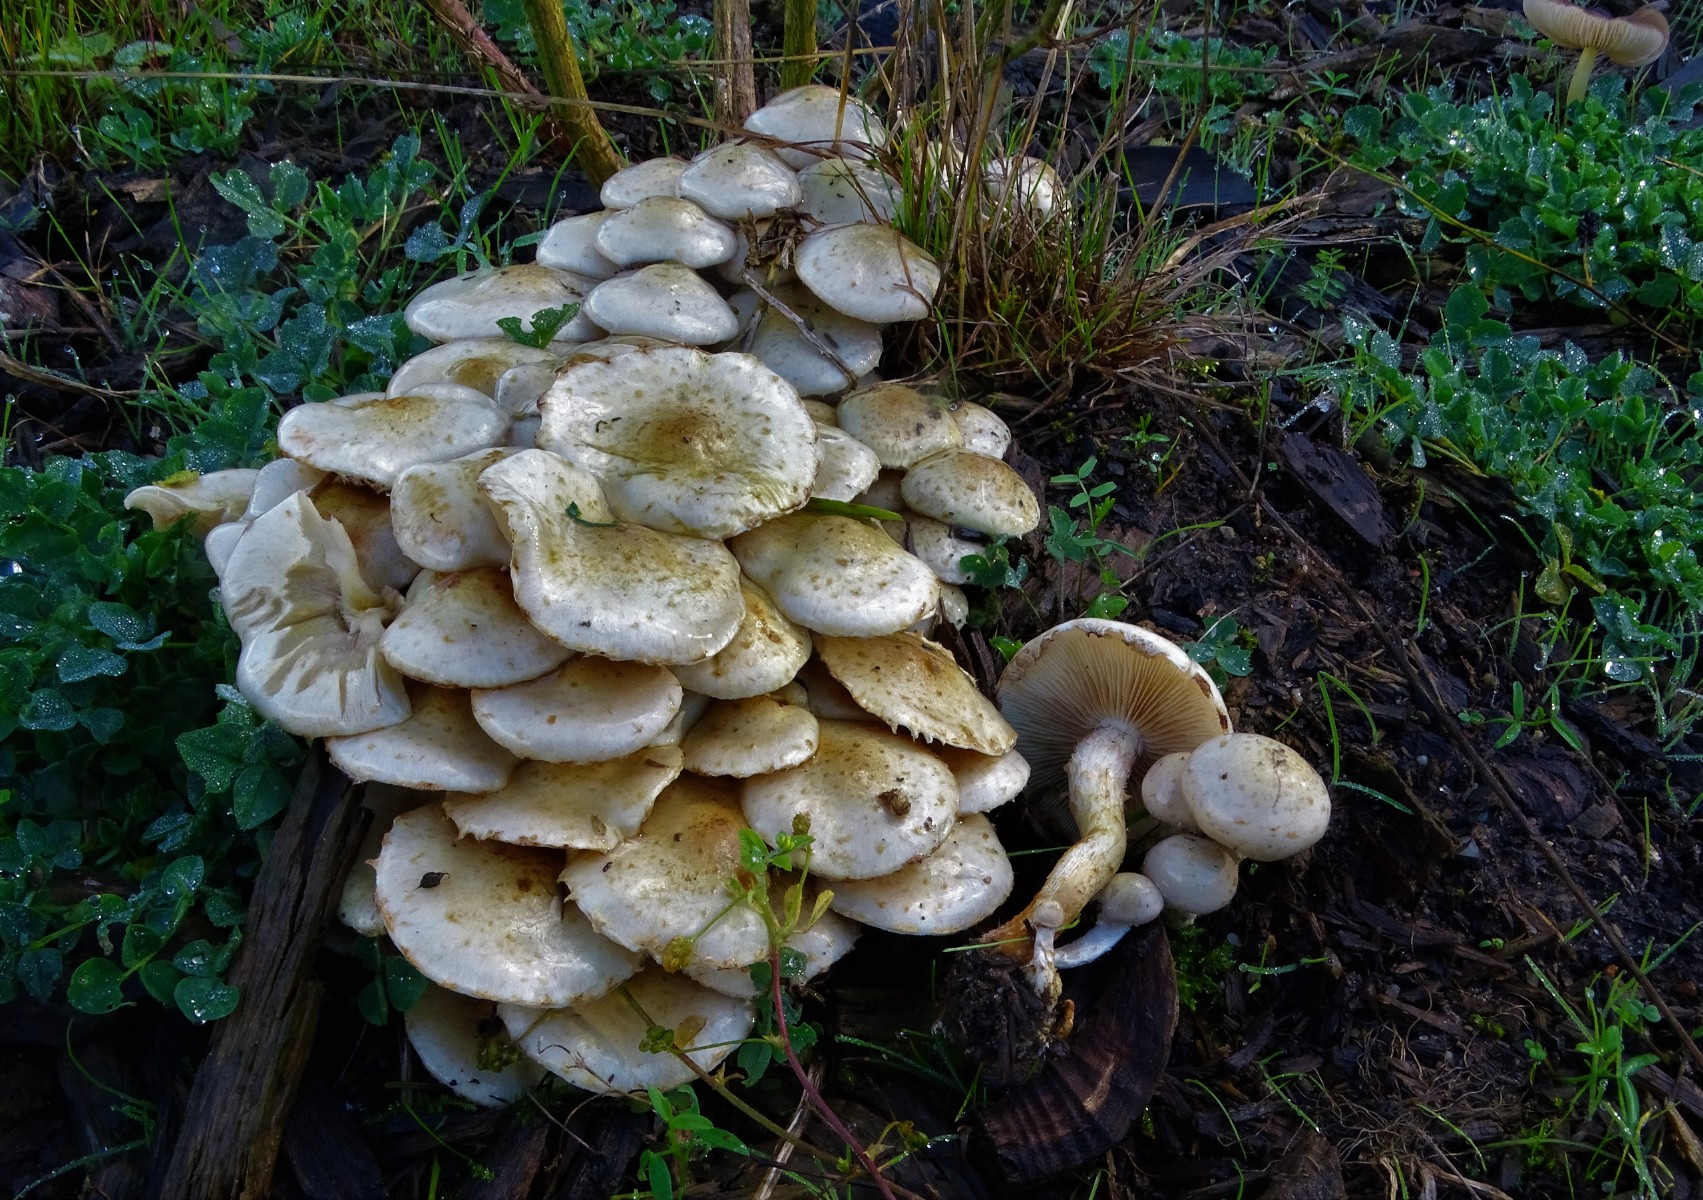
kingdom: Fungi
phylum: Basidiomycota
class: Agaricomycetes
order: Agaricales
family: Strophariaceae
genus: Pholiota
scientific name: Pholiota gummosa
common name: grøngul skælhat
